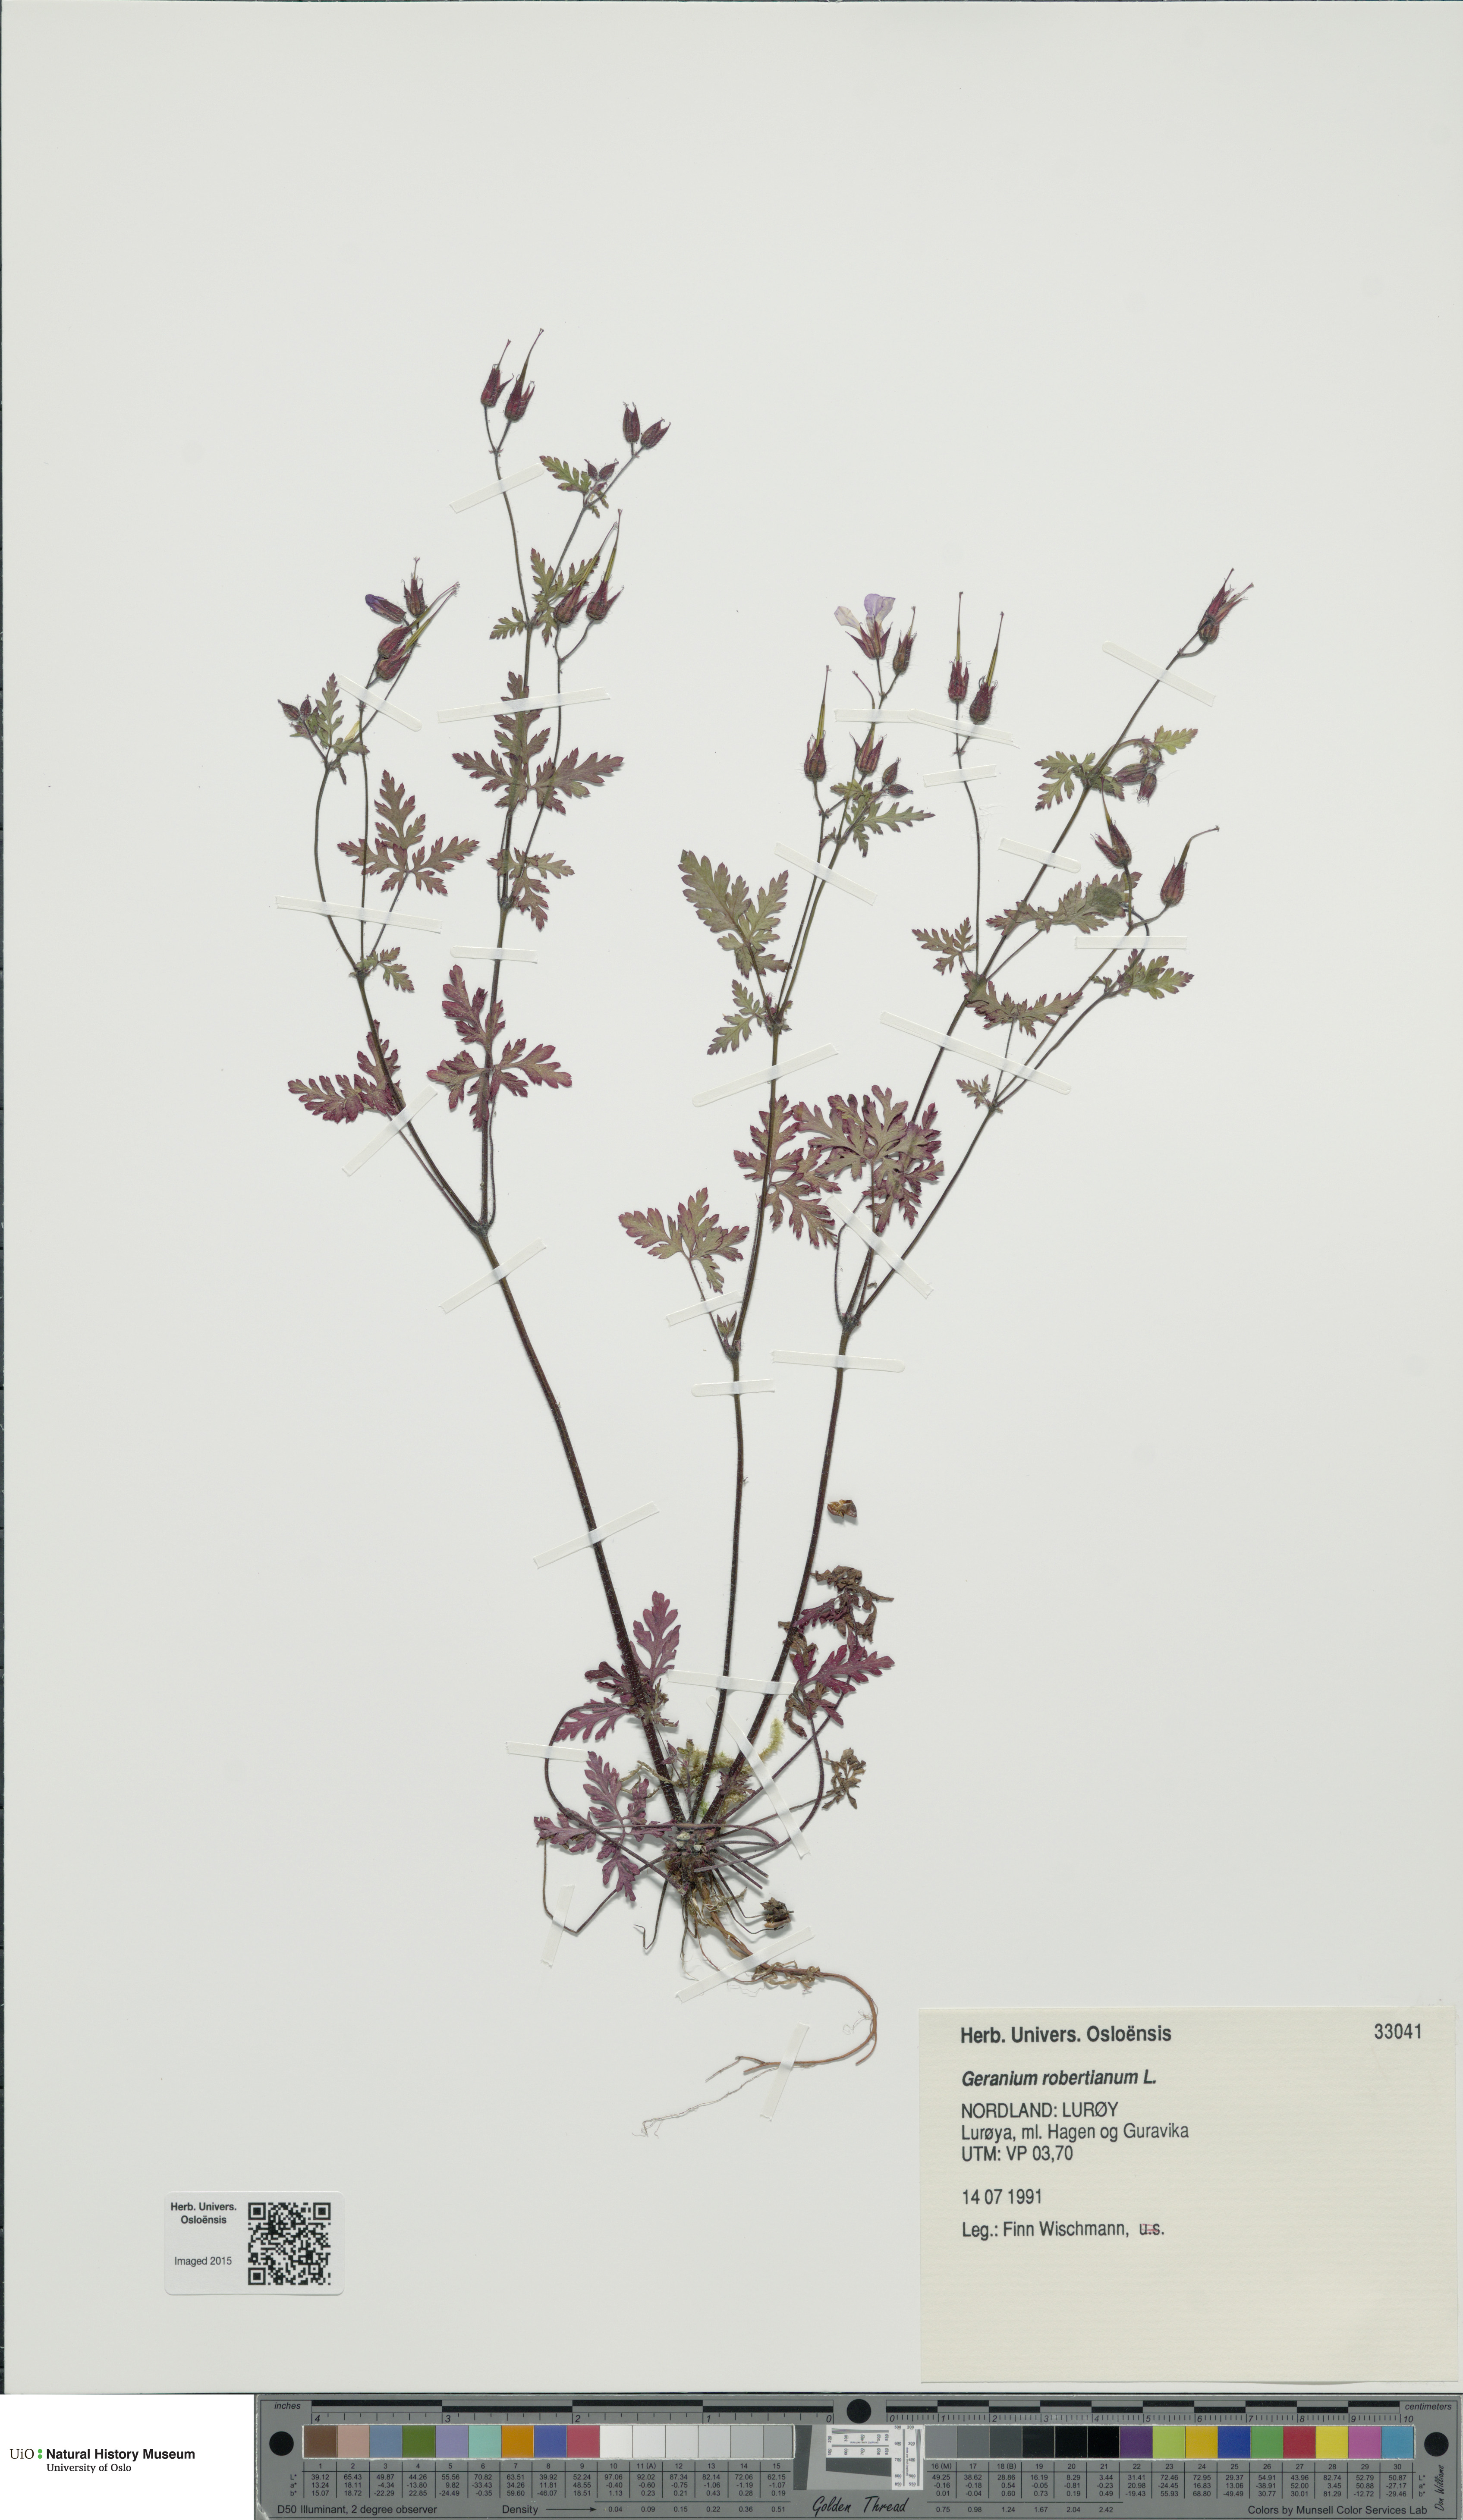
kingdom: Plantae
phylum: Tracheophyta
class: Magnoliopsida
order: Geraniales
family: Geraniaceae
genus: Geranium
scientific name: Geranium robertianum
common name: Herb-robert
